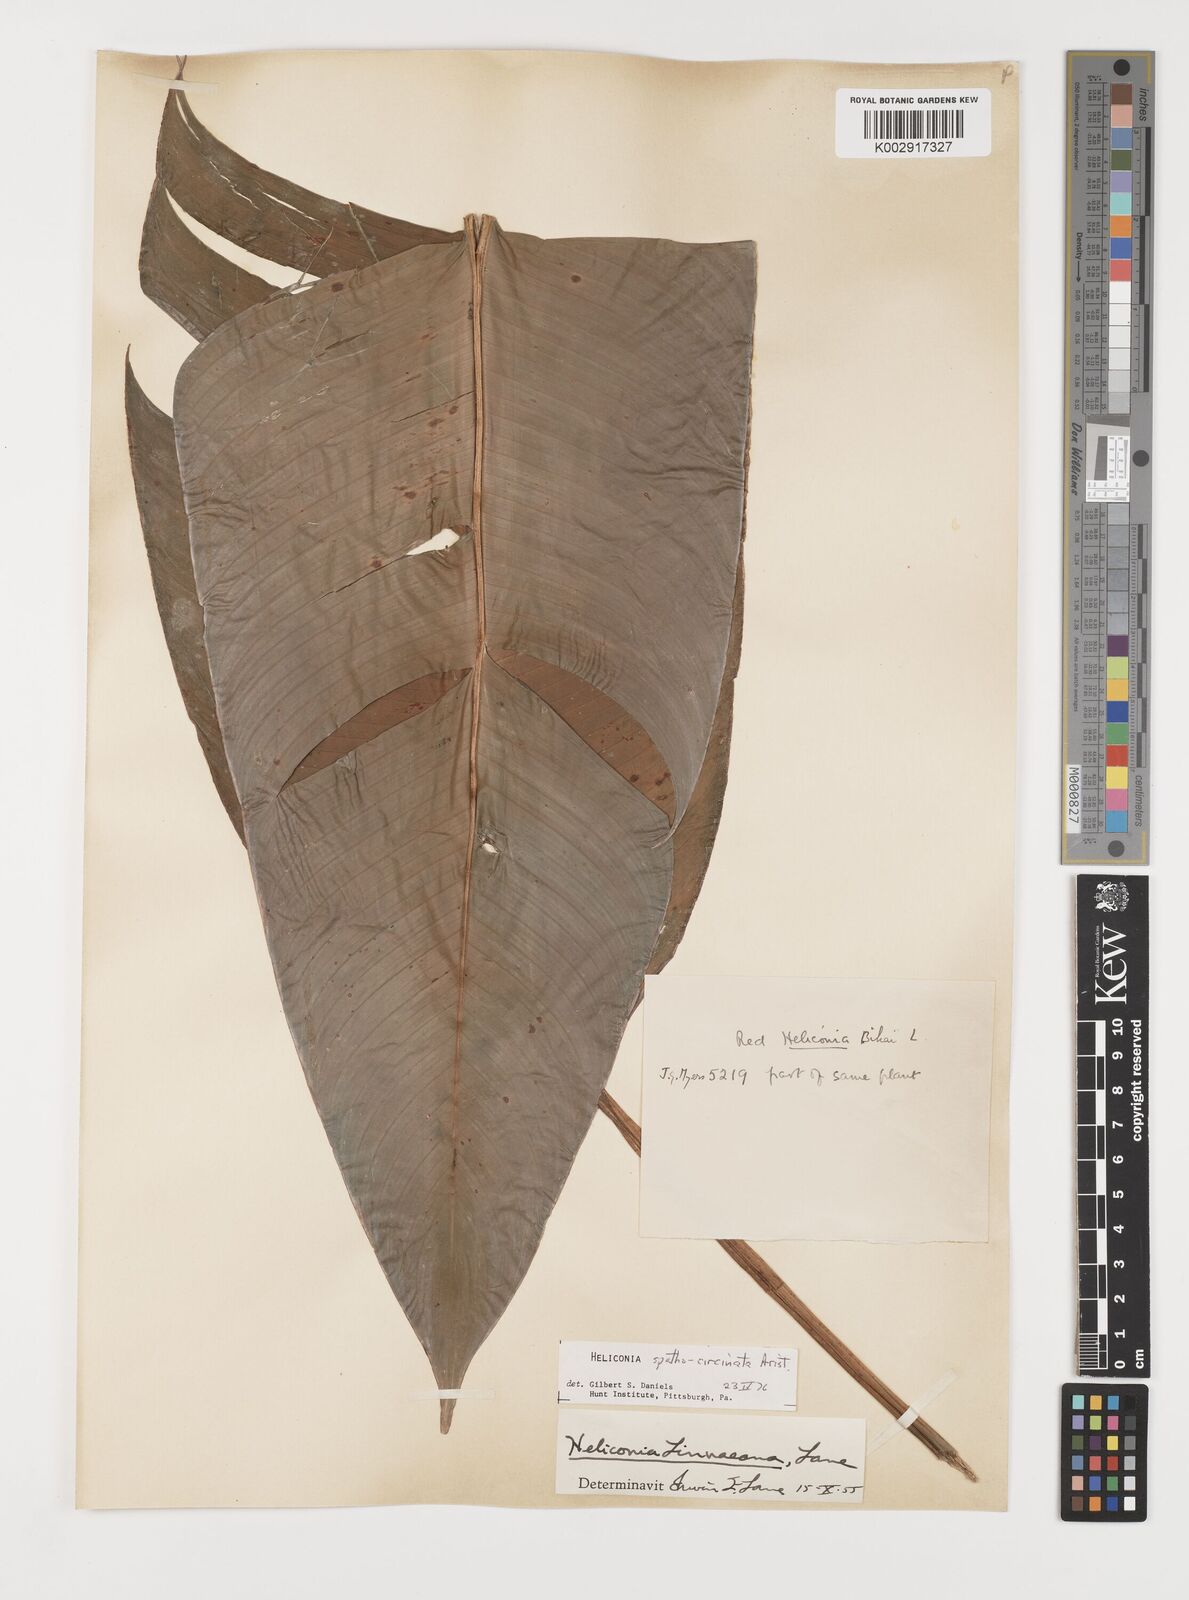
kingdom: Plantae
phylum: Tracheophyta
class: Liliopsida
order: Zingiberales
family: Heliconiaceae
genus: Heliconia
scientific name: Heliconia spathocircinata
